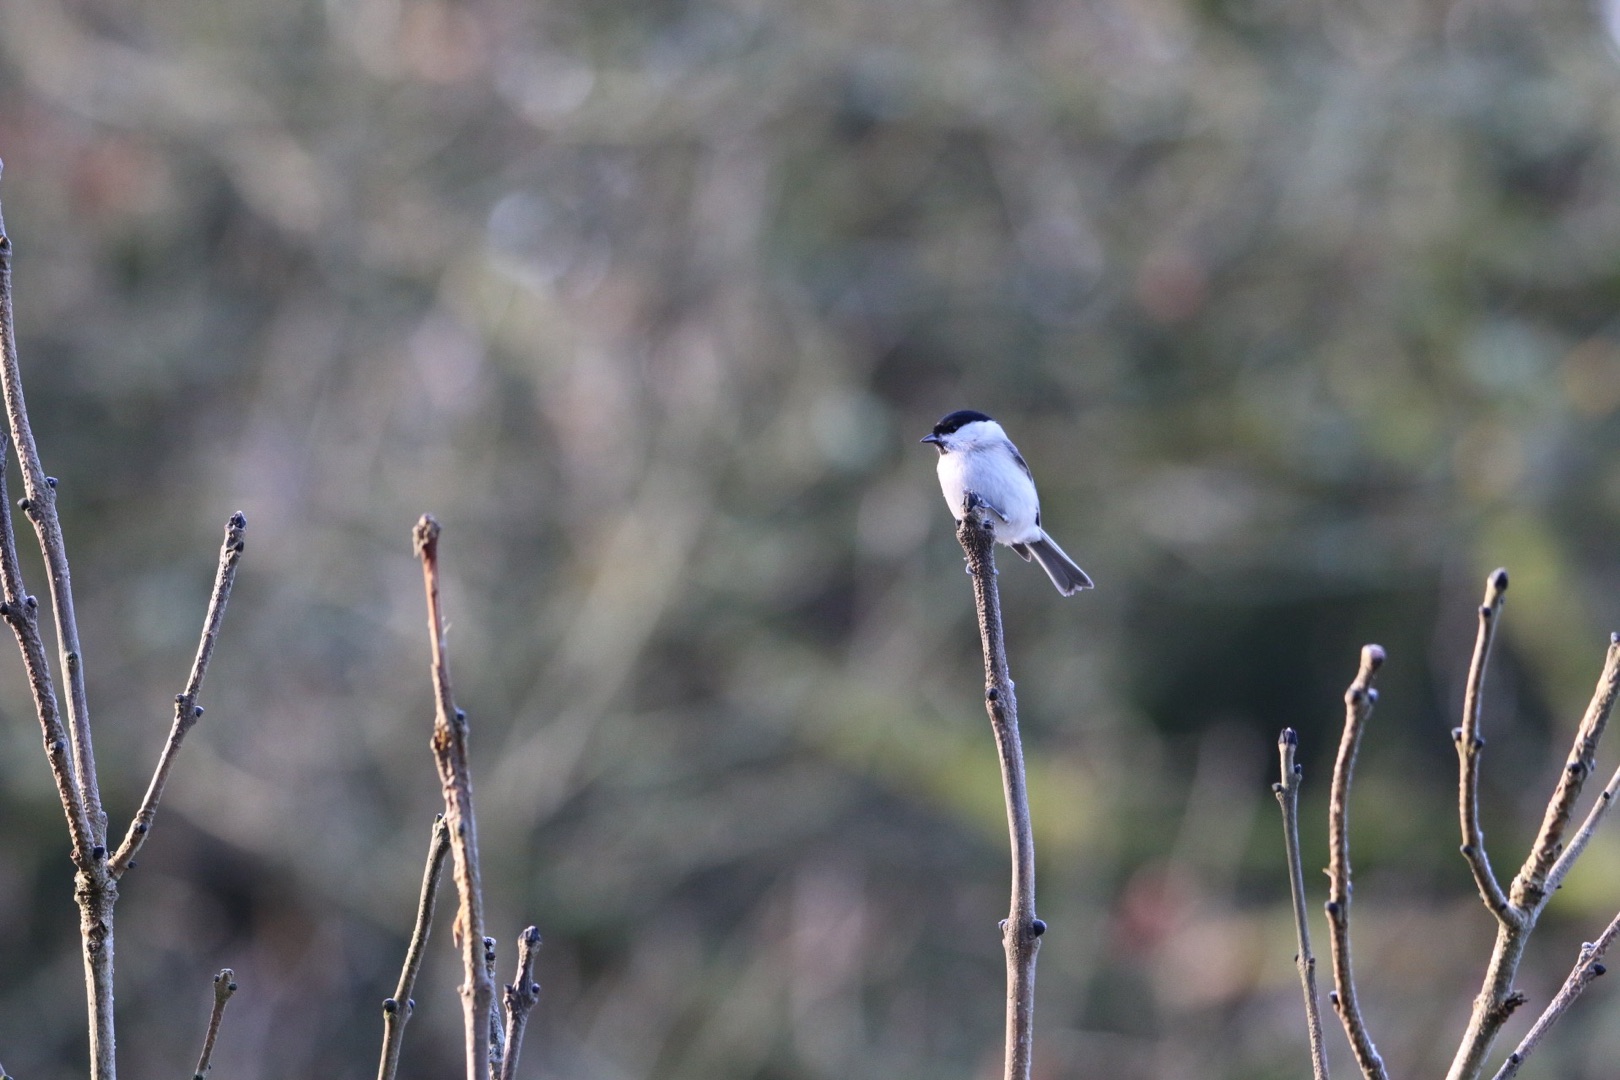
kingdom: Animalia
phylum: Chordata
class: Aves
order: Passeriformes
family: Paridae
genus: Poecile
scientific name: Poecile palustris
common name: Sumpmejse
